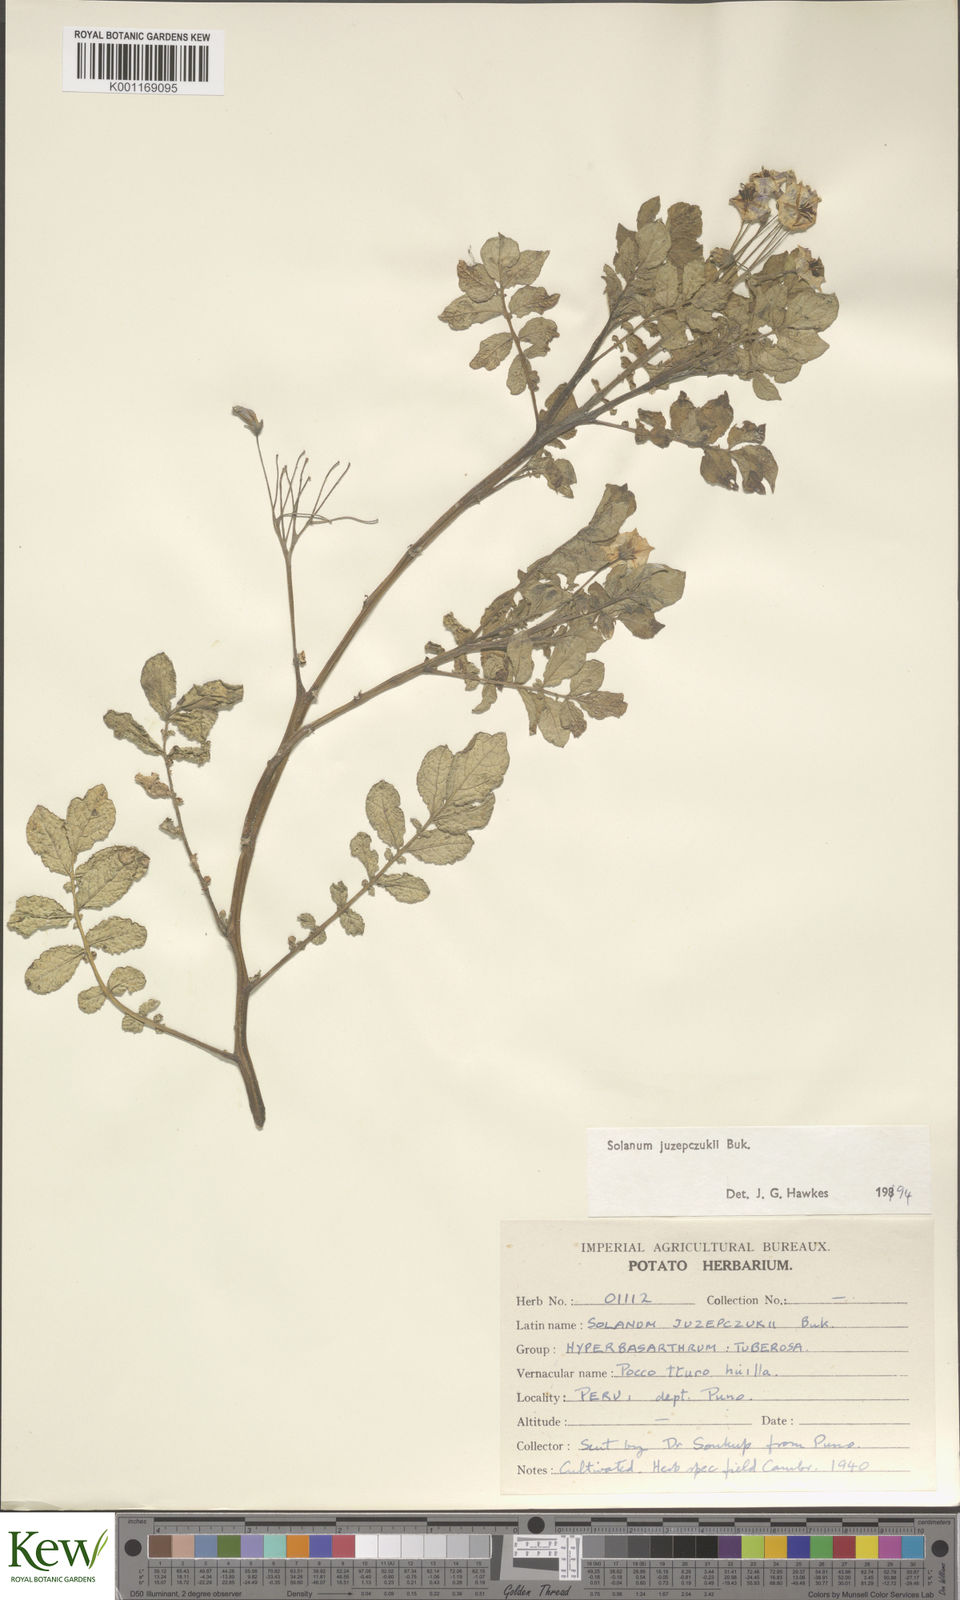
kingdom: Plantae
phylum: Tracheophyta
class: Magnoliopsida
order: Solanales
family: Solanaceae
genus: Solanum
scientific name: Solanum juzepczukii
